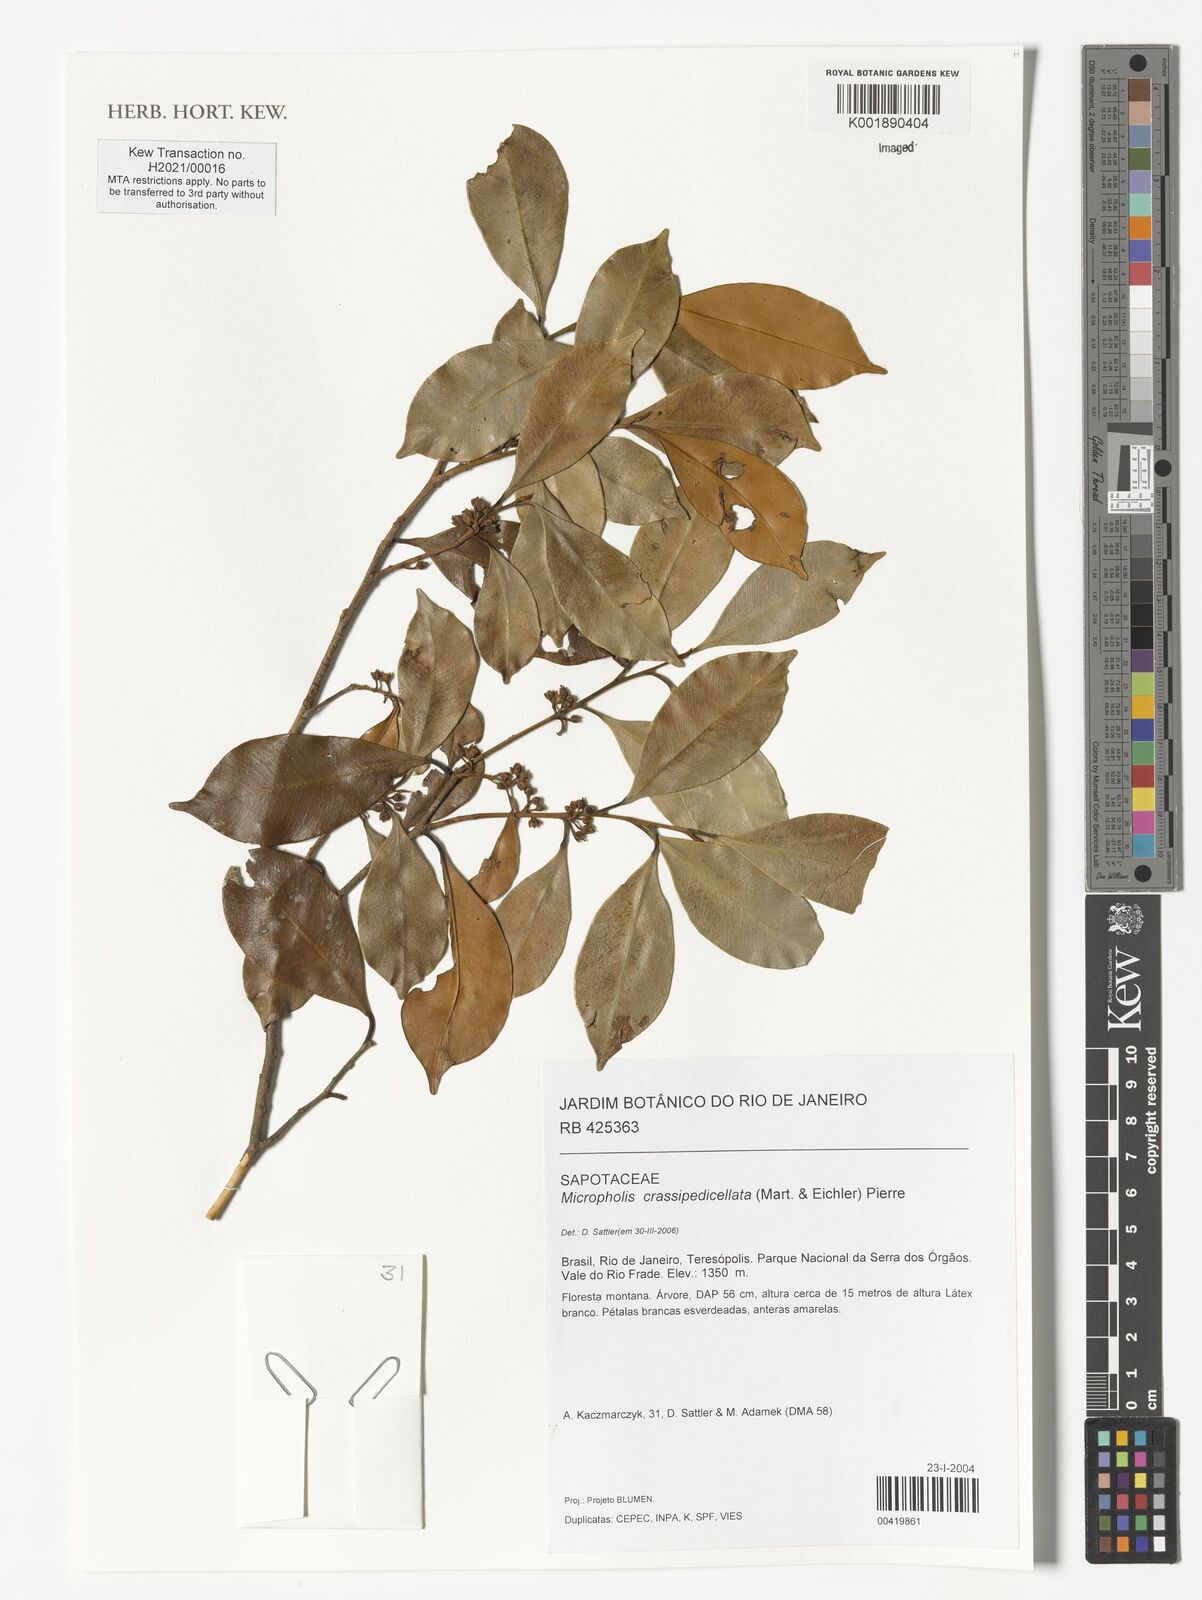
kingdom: Plantae
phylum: Tracheophyta
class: Magnoliopsida
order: Ericales
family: Sapotaceae
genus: Micropholis
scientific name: Micropholis crassipedicellata
